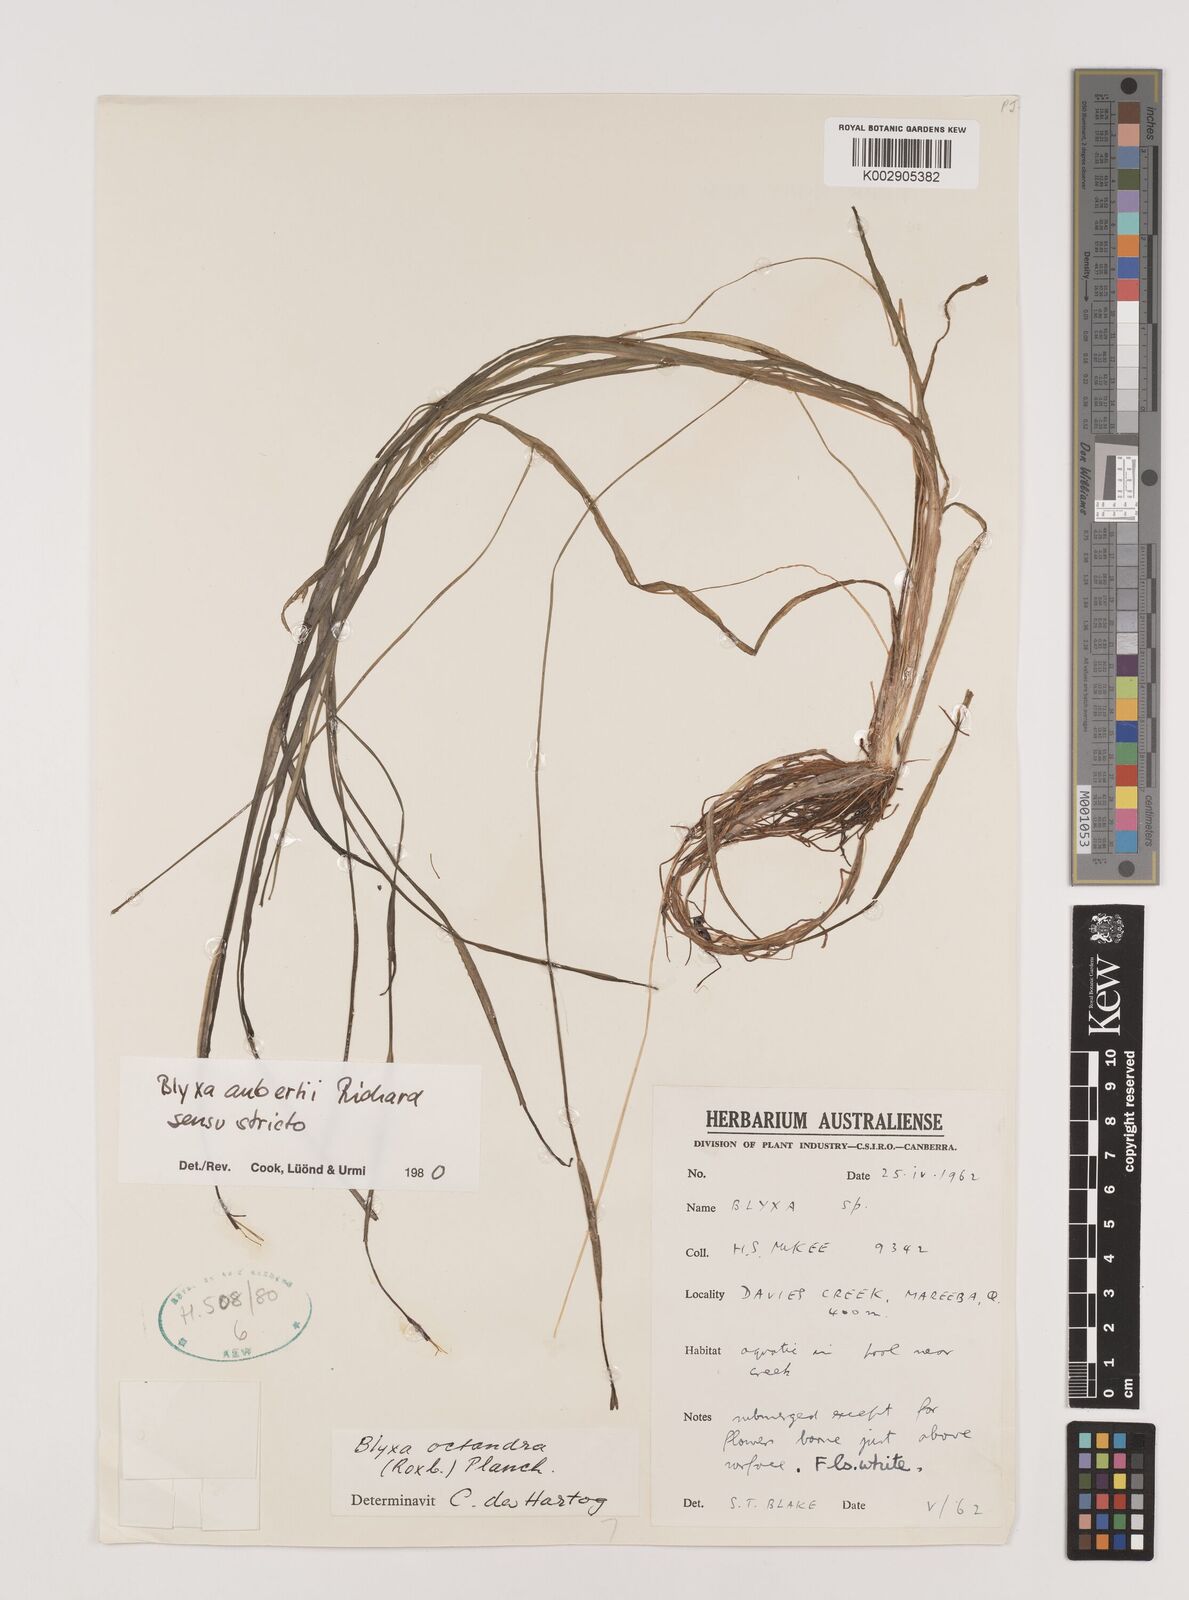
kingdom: Plantae
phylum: Tracheophyta
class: Liliopsida
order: Alismatales
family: Hydrocharitaceae
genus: Blyxa
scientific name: Blyxa aubertii
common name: Roundfruit blyxa
